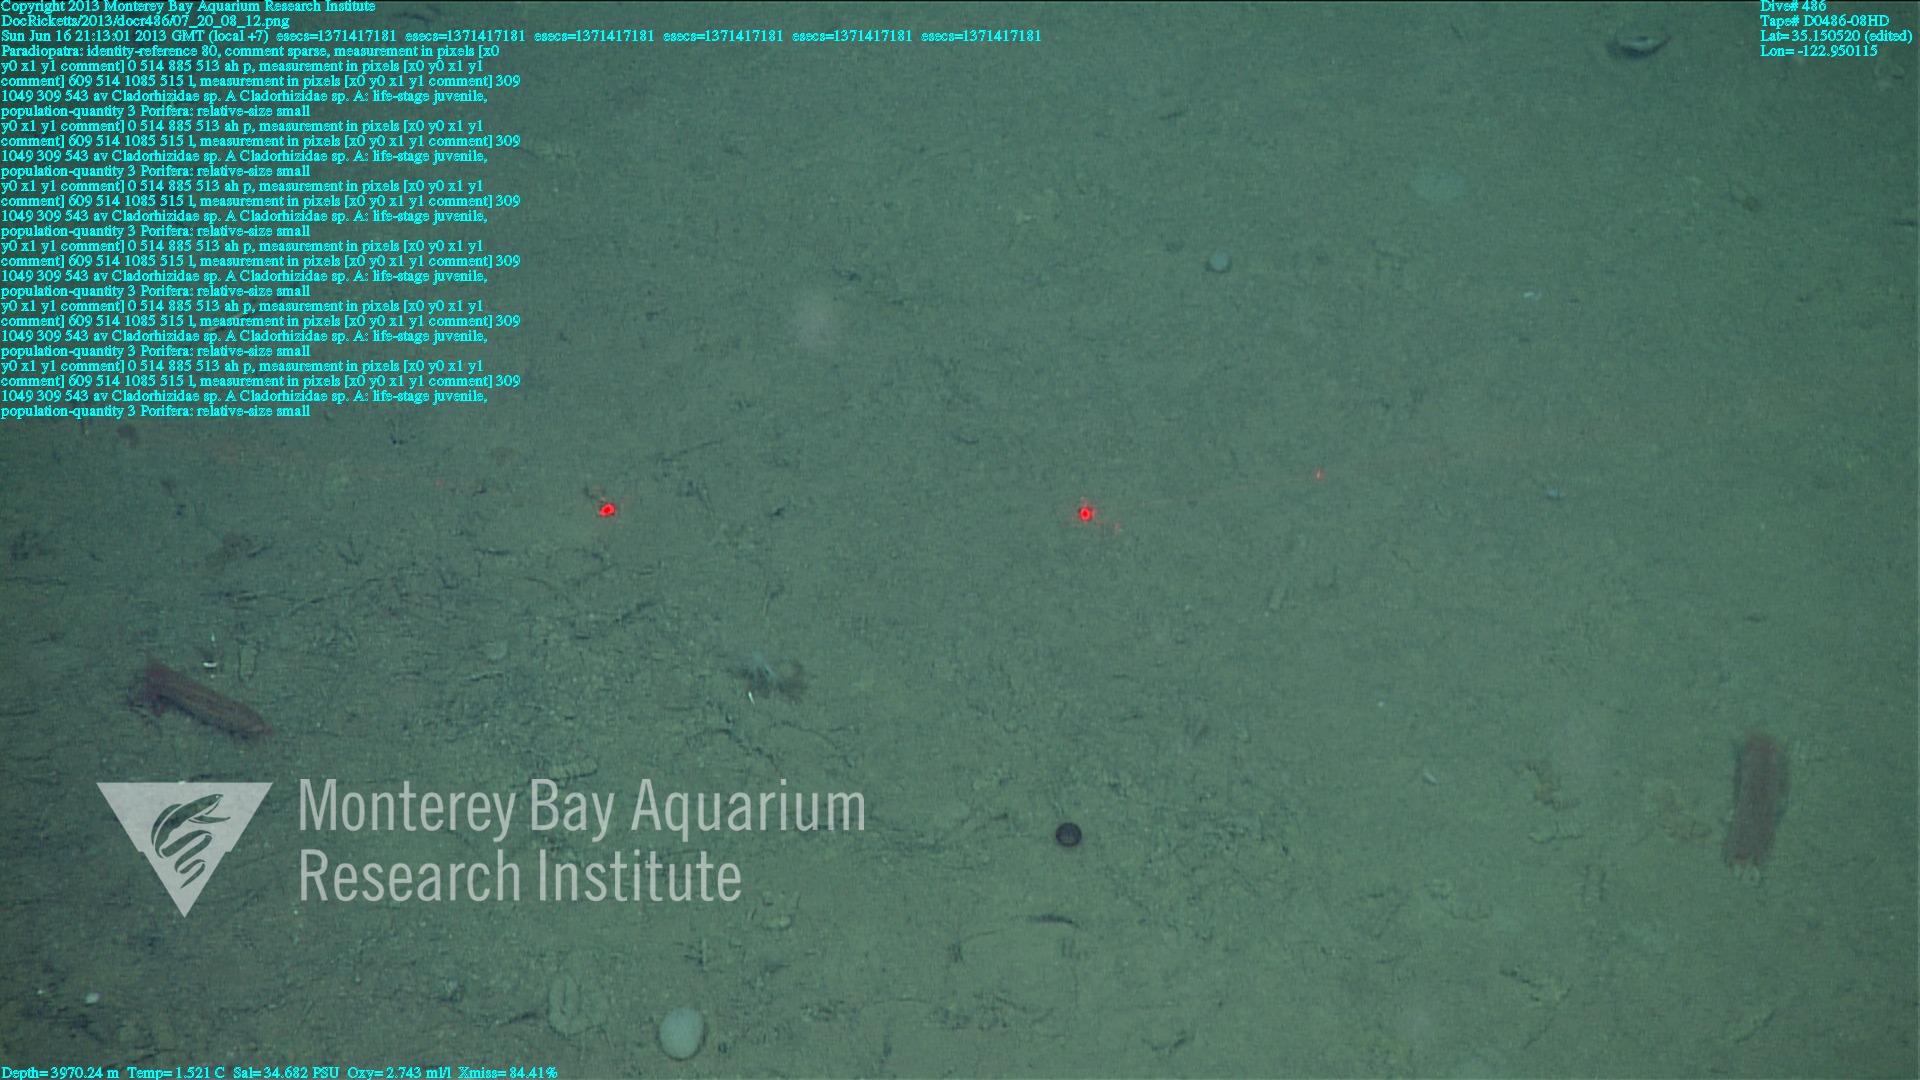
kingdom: Animalia
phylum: Porifera
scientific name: Porifera
